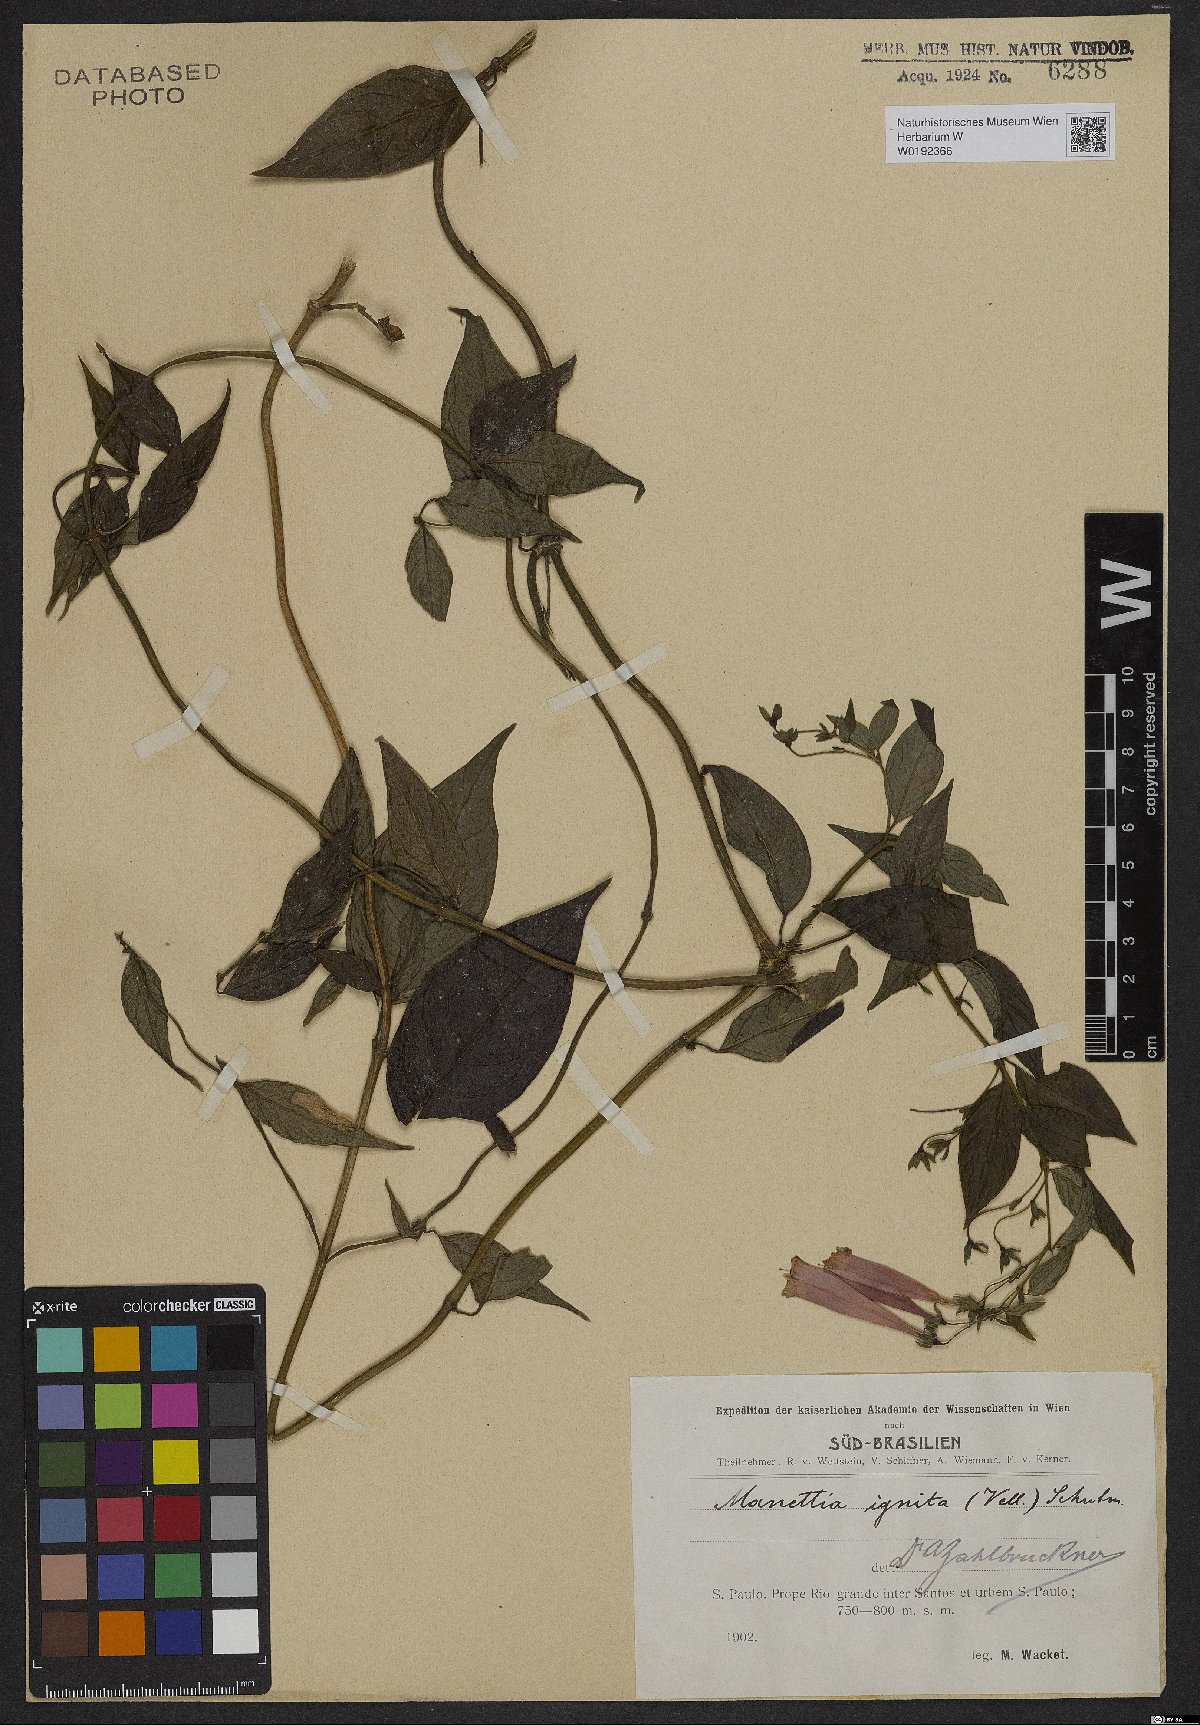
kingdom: Plantae
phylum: Tracheophyta
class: Magnoliopsida
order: Gentianales
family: Rubiaceae
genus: Manettia
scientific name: Manettia cordifolia
